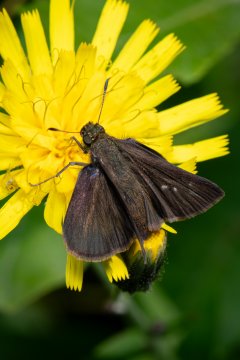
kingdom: Animalia
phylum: Arthropoda
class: Insecta
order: Lepidoptera
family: Hesperiidae
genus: Euphyes
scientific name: Euphyes vestris
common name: Dun Skipper
